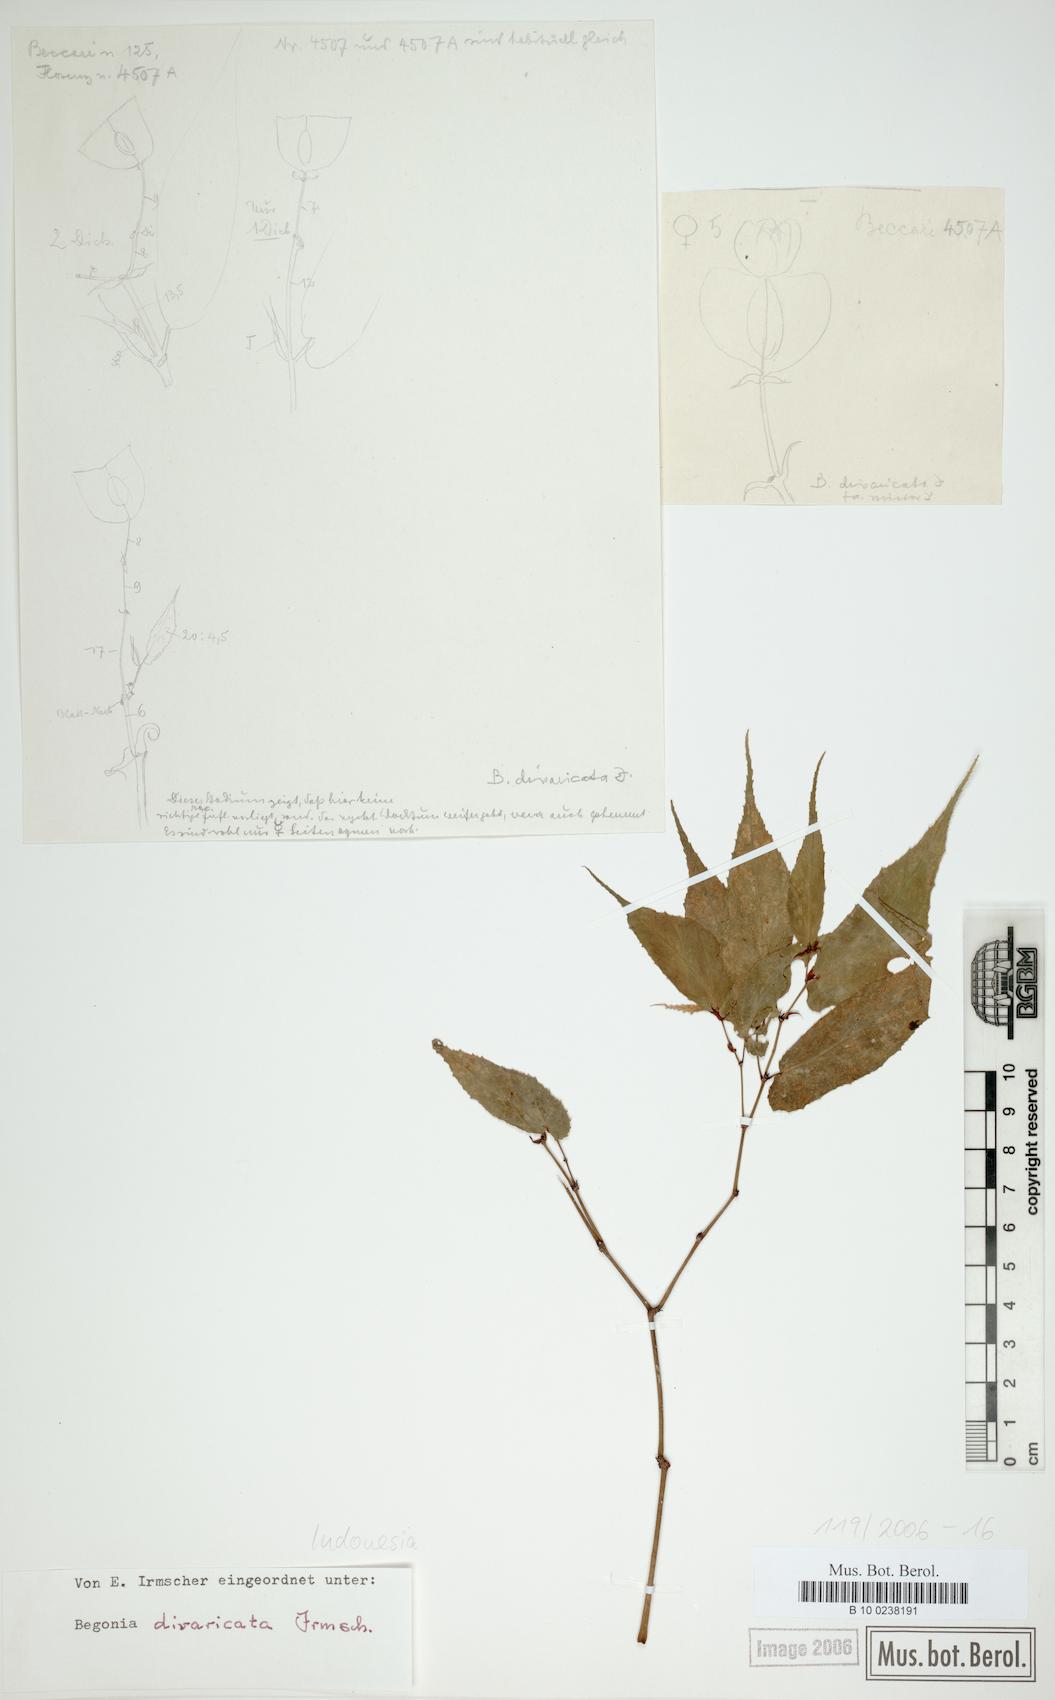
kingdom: Plantae
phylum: Tracheophyta
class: Magnoliopsida
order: Cucurbitales
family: Begoniaceae
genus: Begonia
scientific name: Begonia divaricata
